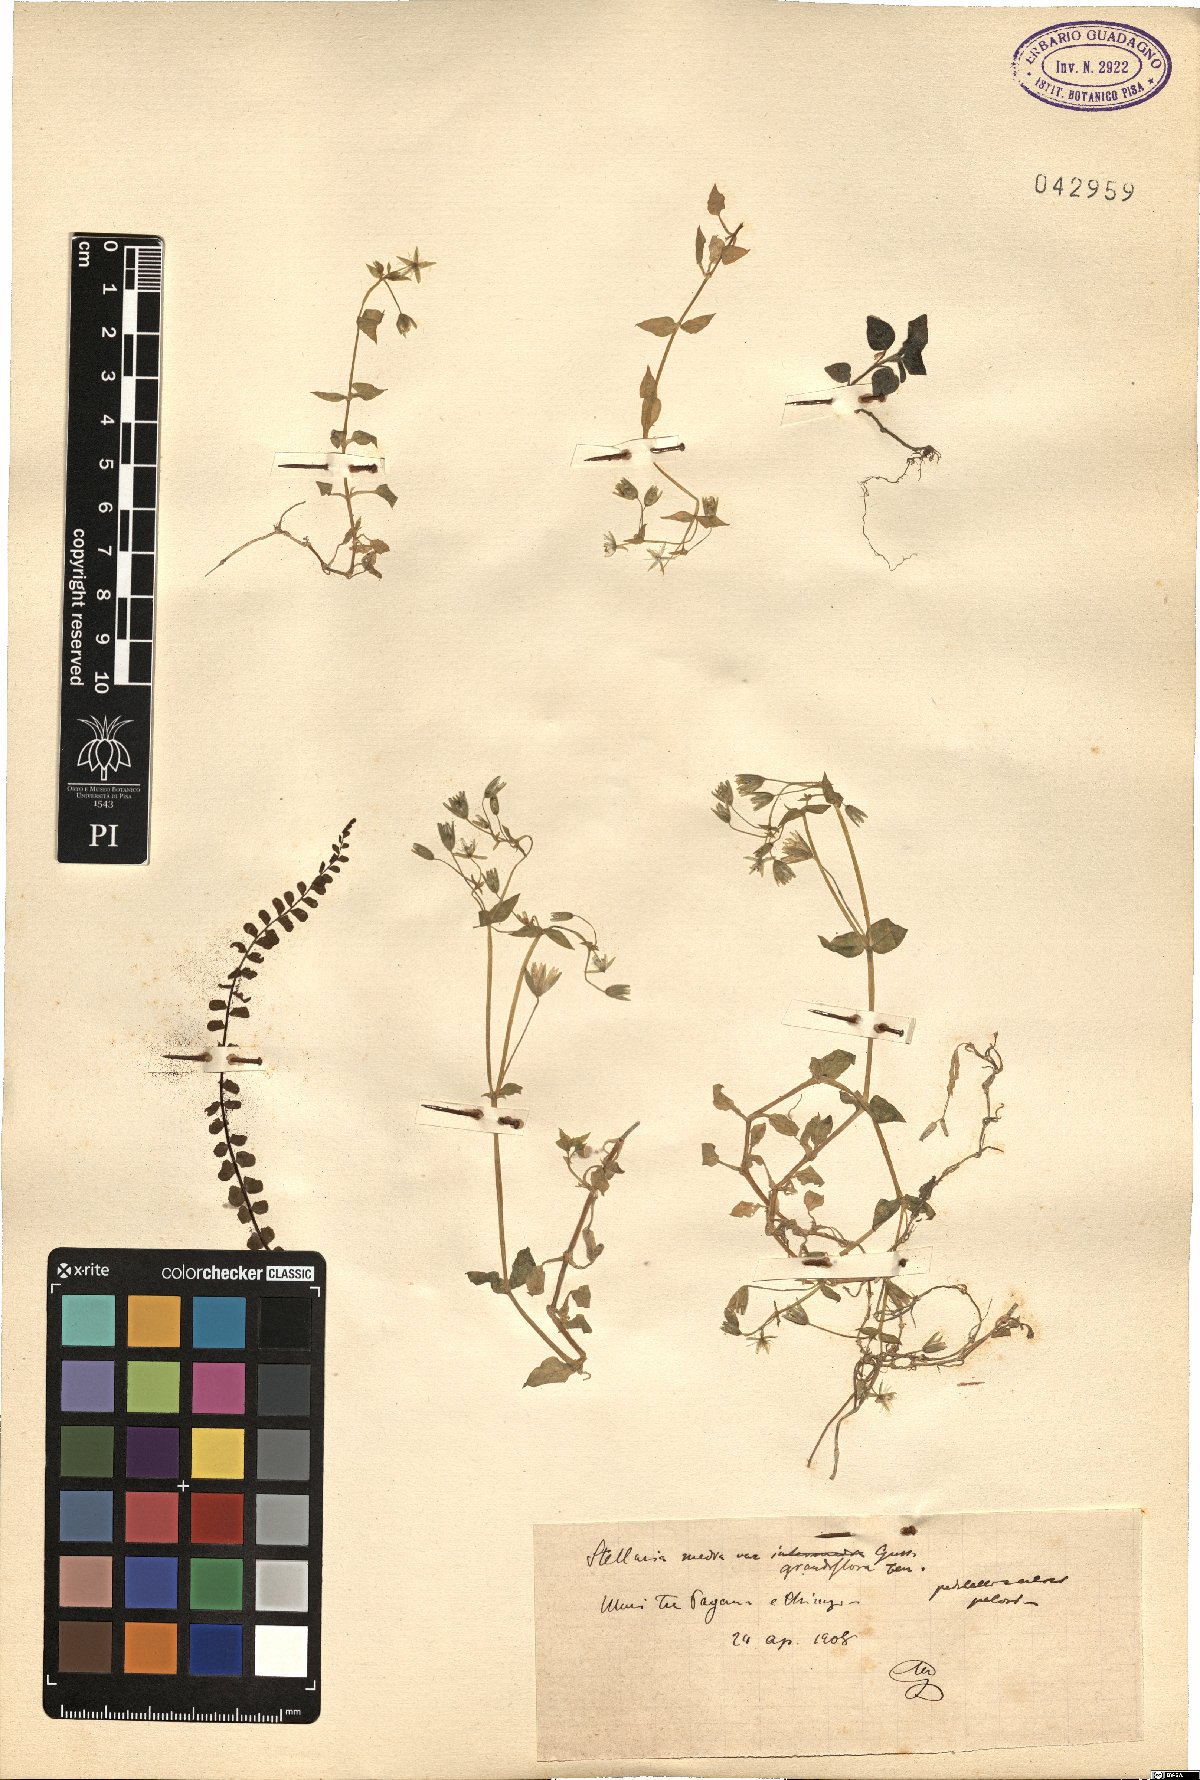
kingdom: Plantae
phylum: Tracheophyta
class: Magnoliopsida
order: Caryophyllales
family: Caryophyllaceae
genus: Stellaria
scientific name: Stellaria media
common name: Common chickweed
